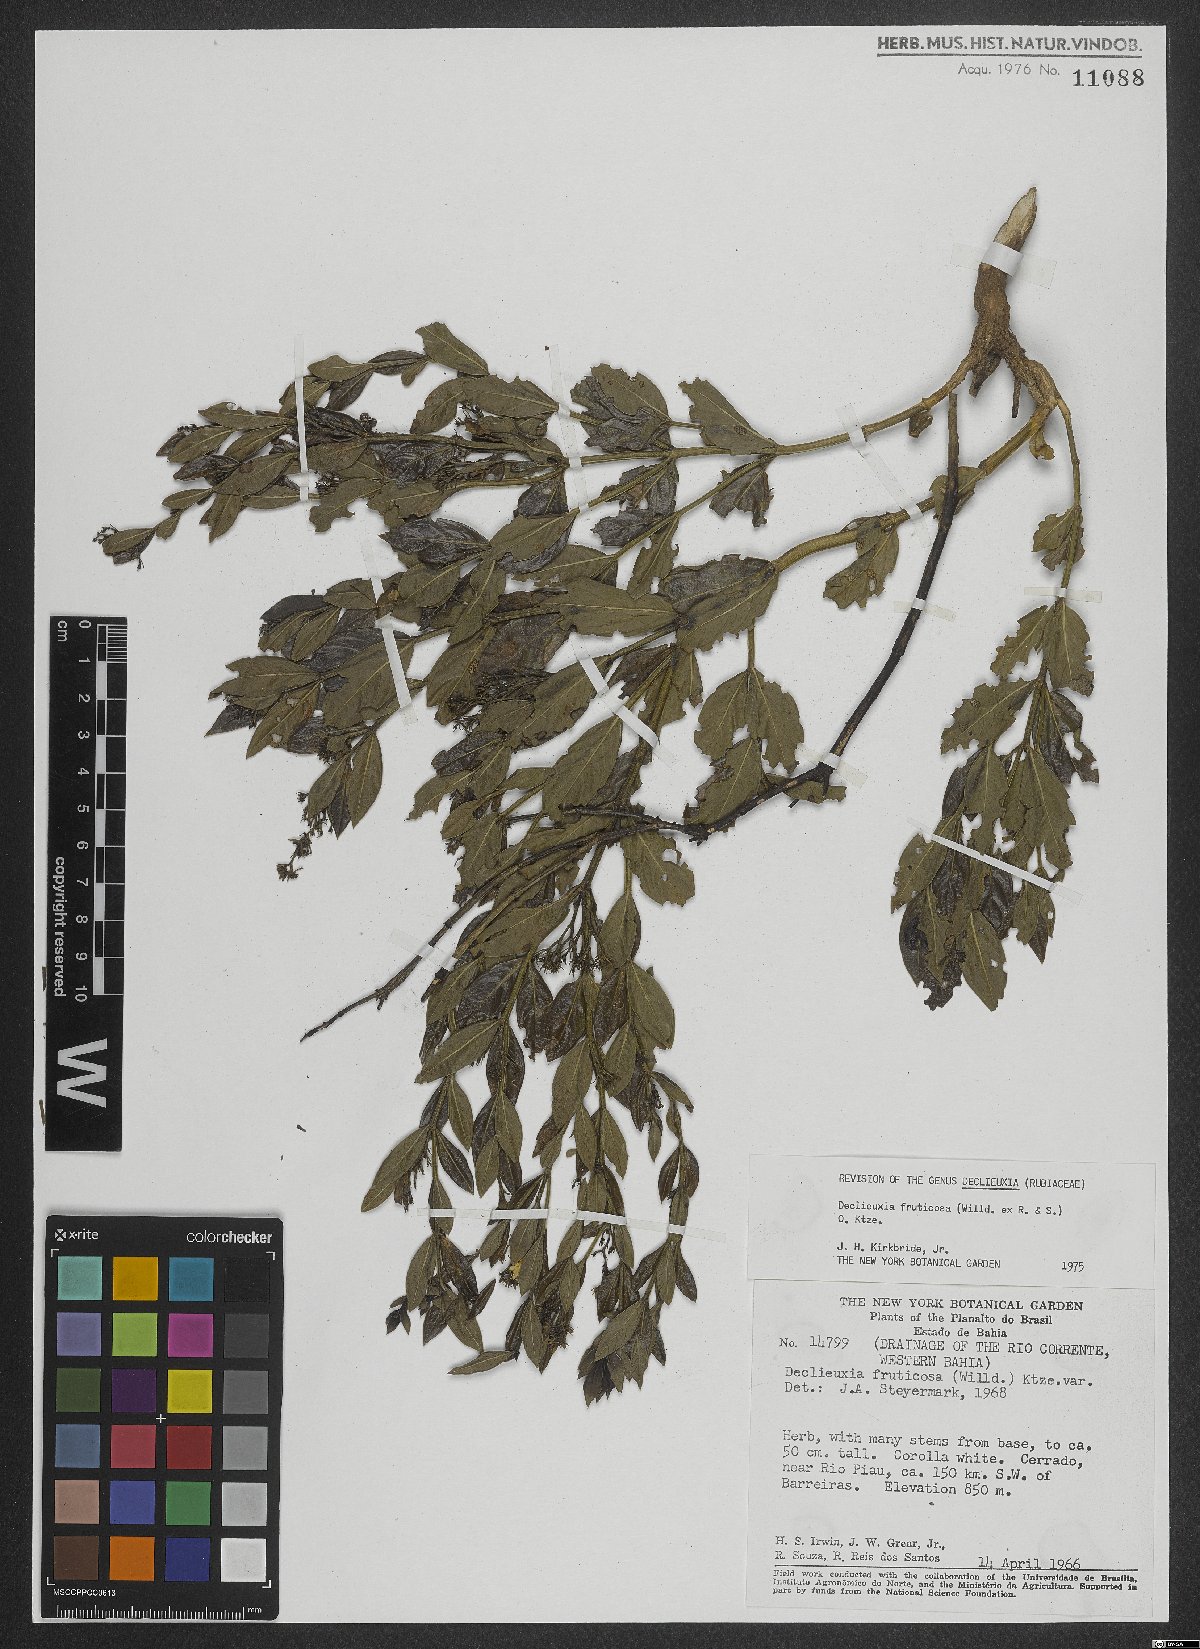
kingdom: Plantae
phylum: Tracheophyta
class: Magnoliopsida
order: Gentianales
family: Rubiaceae
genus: Declieuxia
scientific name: Declieuxia fruticosa
